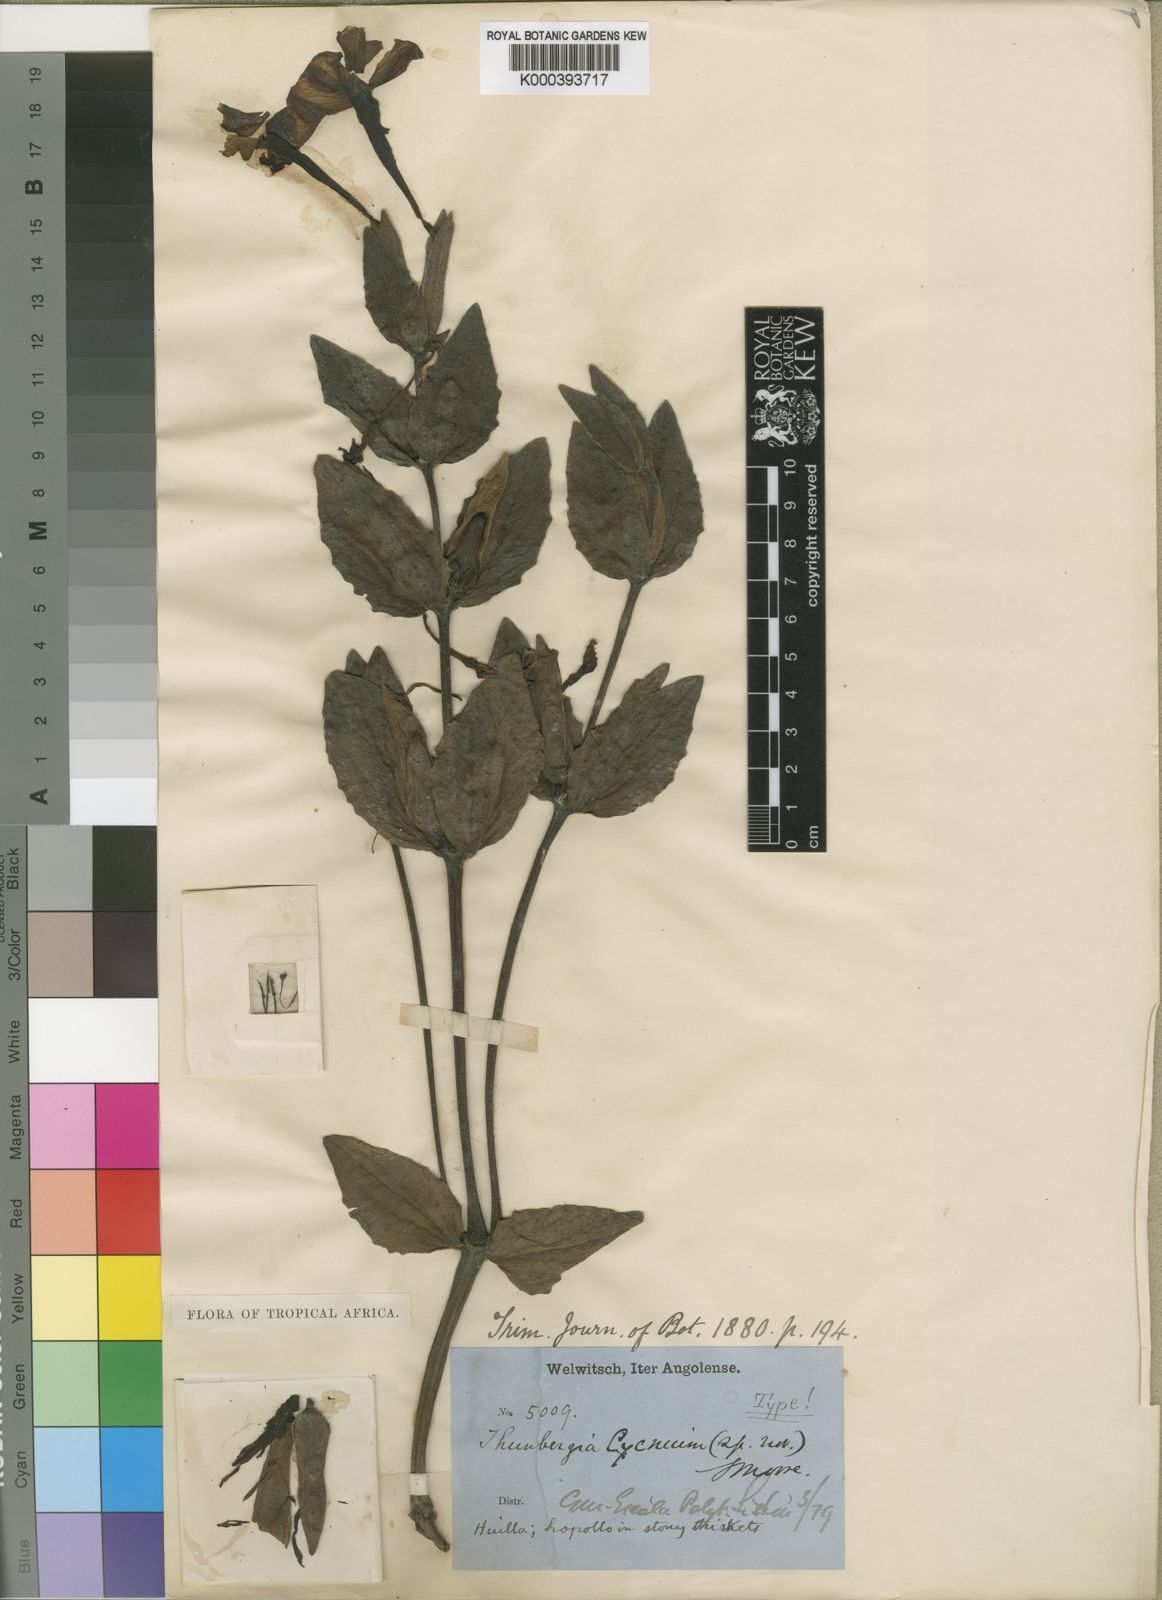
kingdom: Plantae
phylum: Tracheophyta
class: Magnoliopsida
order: Lamiales
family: Acanthaceae
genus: Thunbergia
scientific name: Thunbergia cycnium
